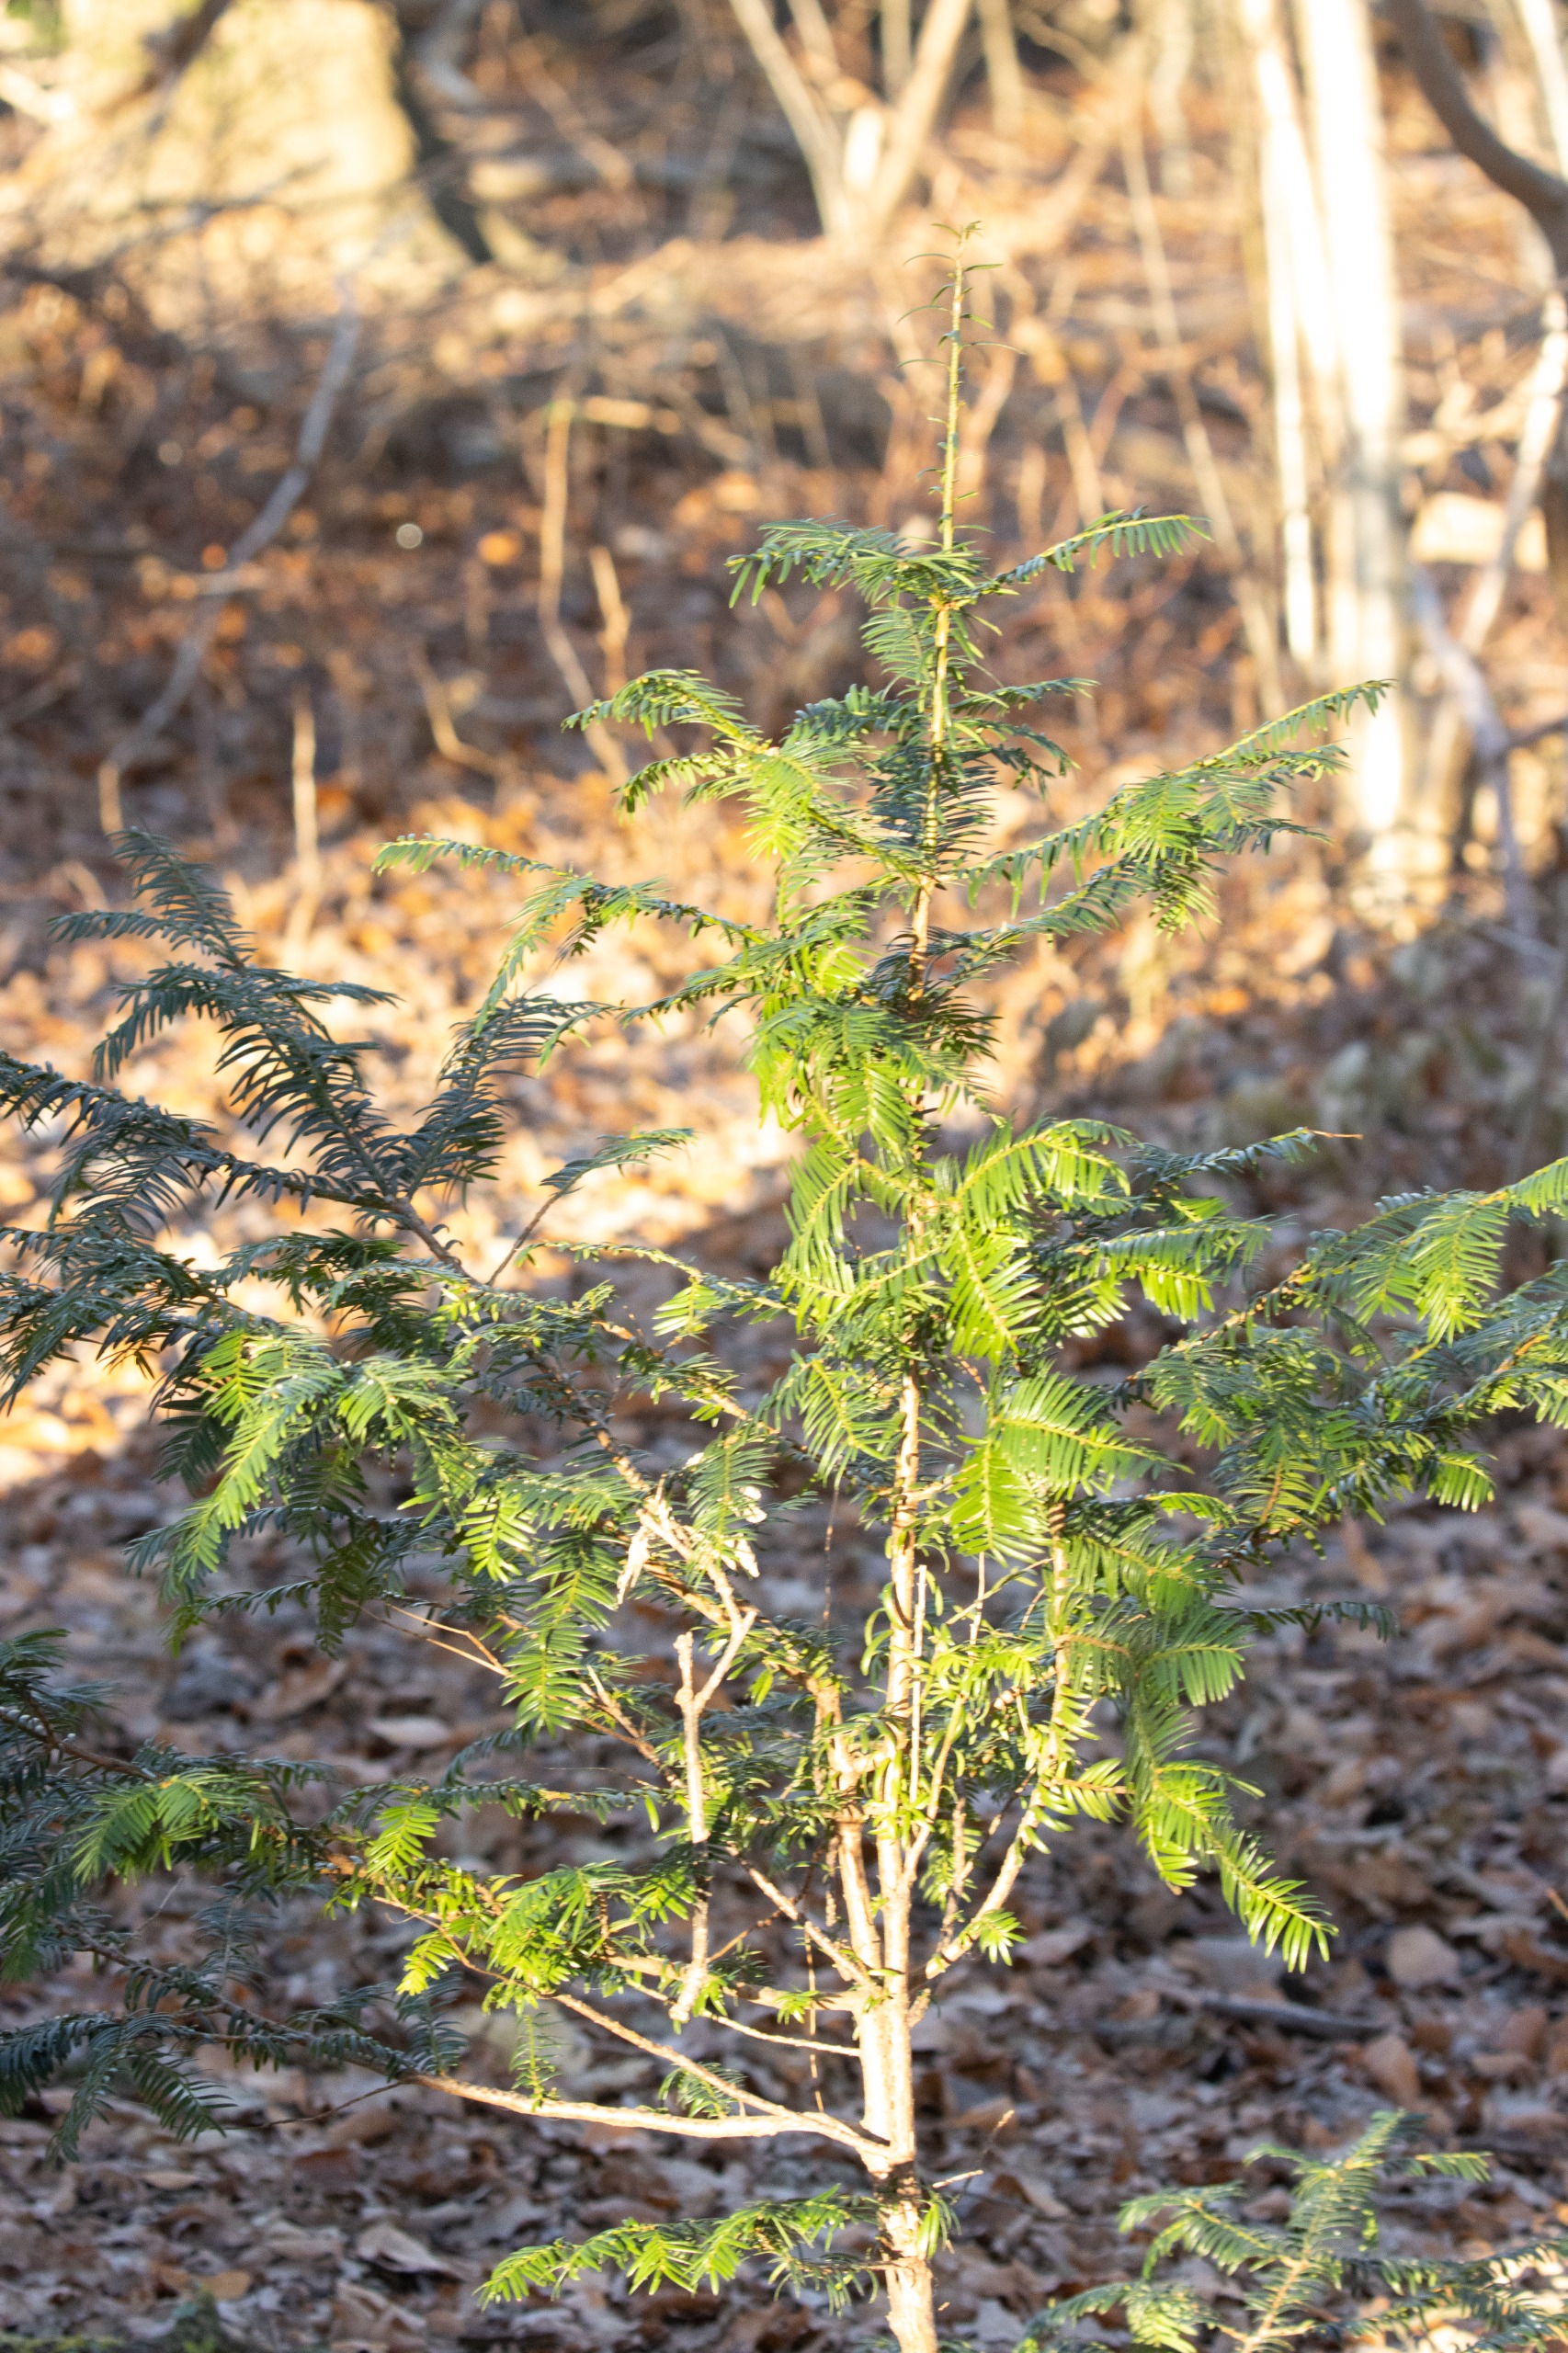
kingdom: Plantae
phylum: Tracheophyta
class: Pinopsida
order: Pinales
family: Taxaceae
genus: Taxus
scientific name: Taxus baccata
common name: Almindelig taks
